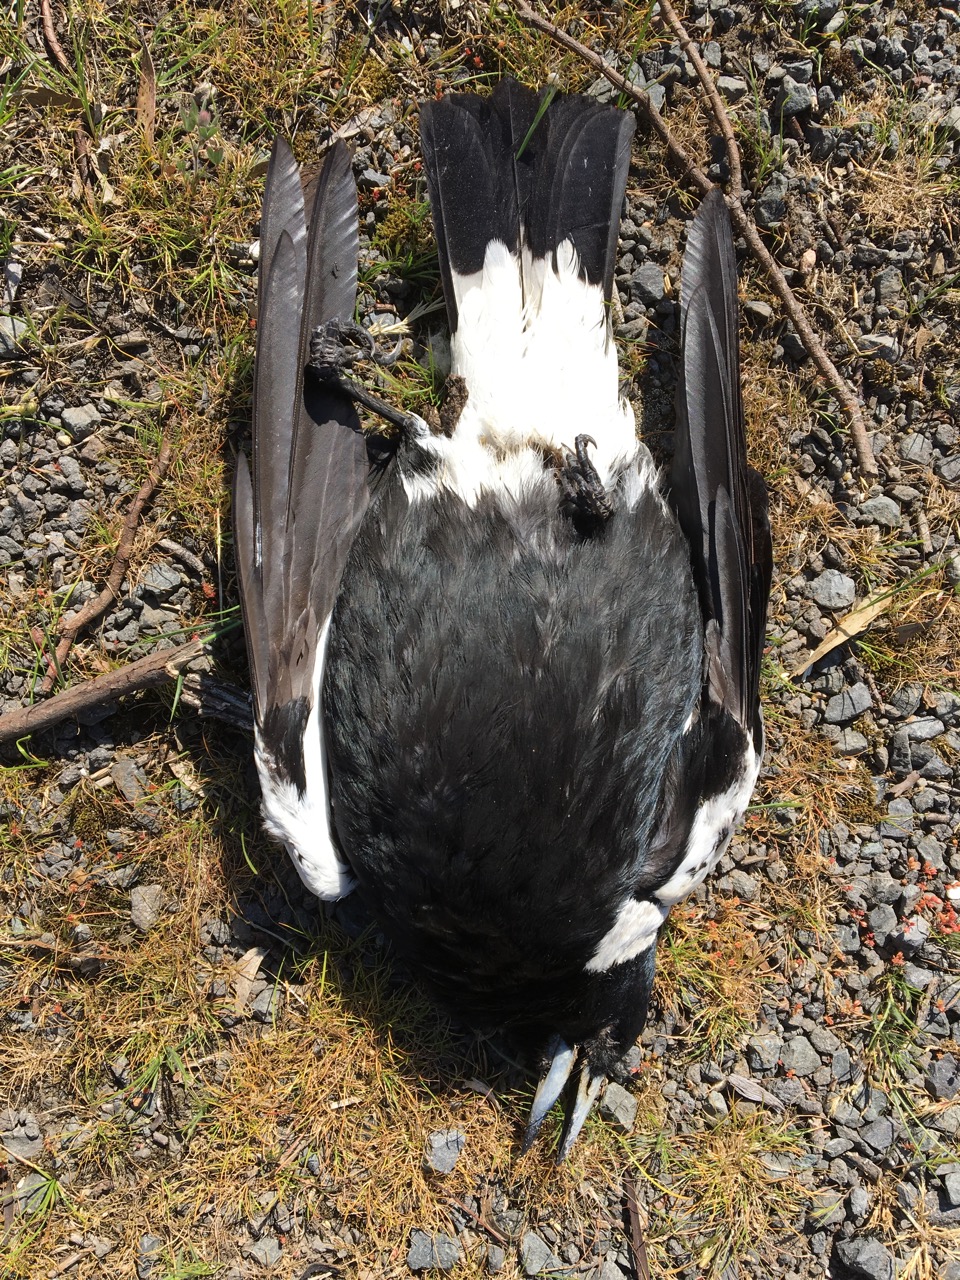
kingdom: Animalia
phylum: Chordata
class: Aves
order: Passeriformes
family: Cracticidae
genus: Gymnorhina
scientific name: Gymnorhina tibicen
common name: Australian magpie
